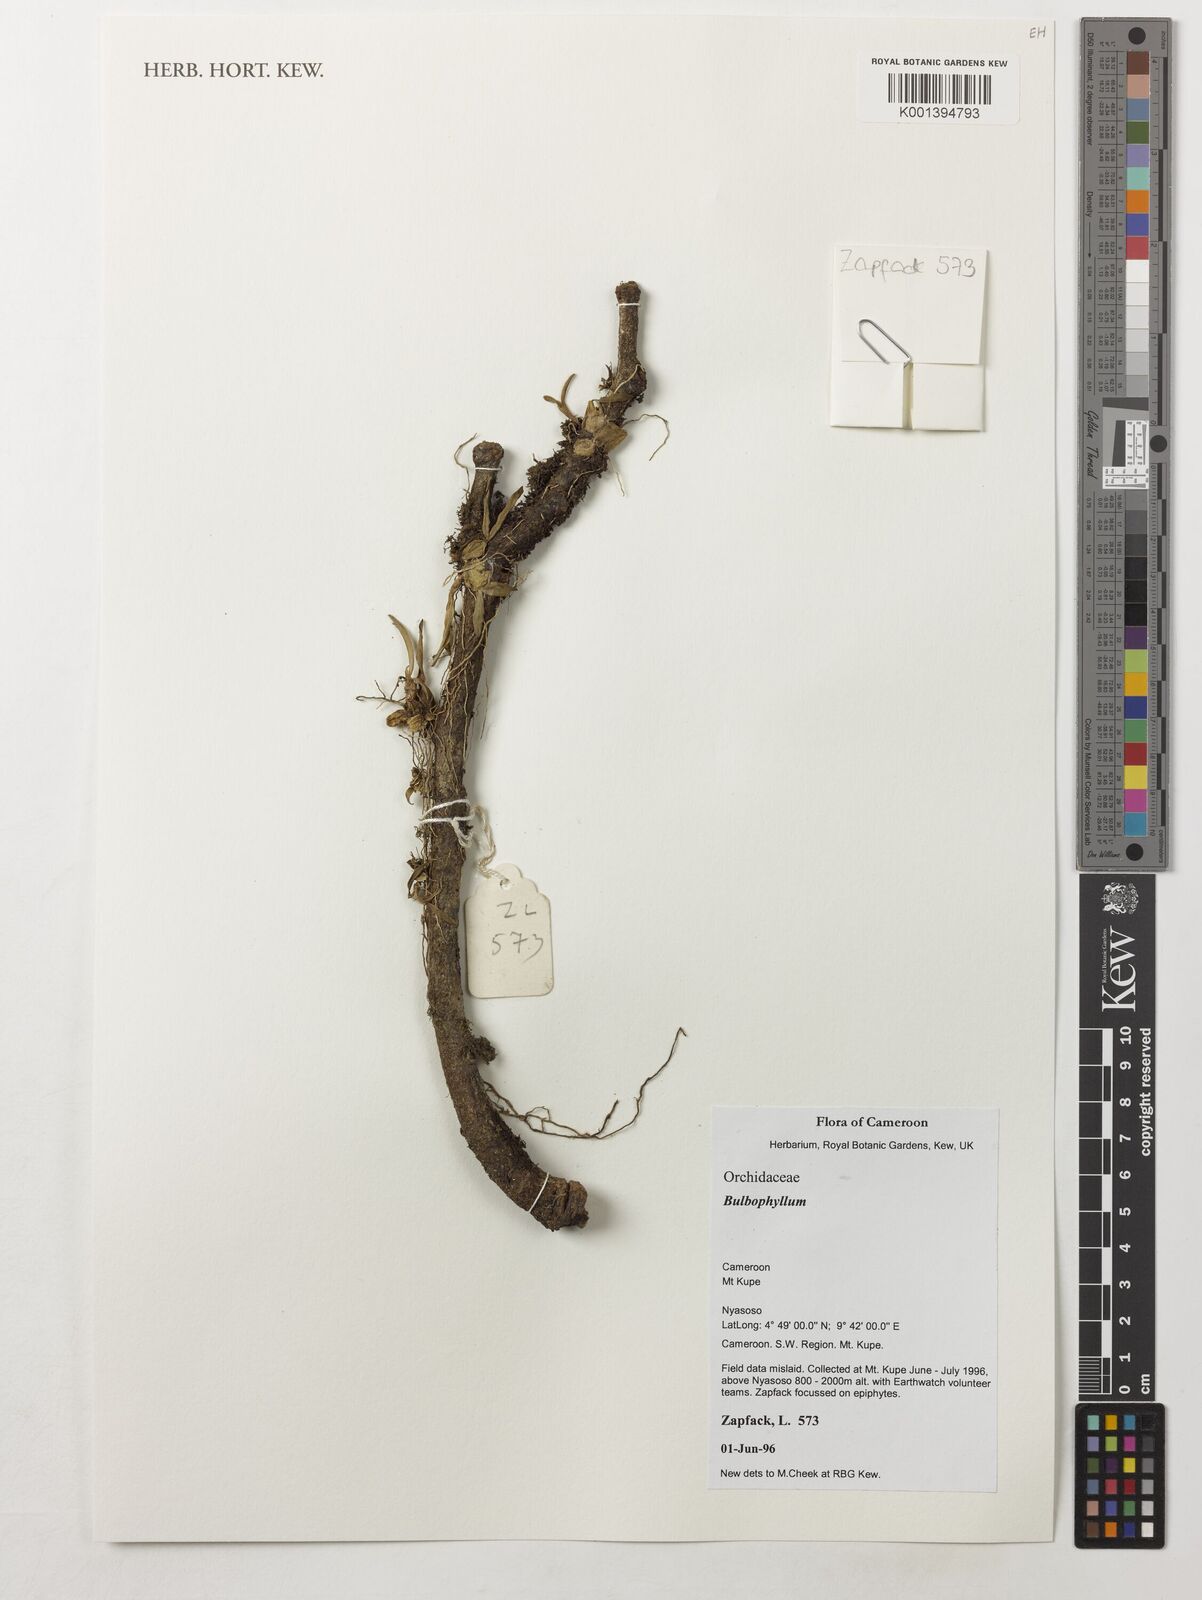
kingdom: Plantae
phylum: Tracheophyta
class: Liliopsida
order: Asparagales
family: Orchidaceae
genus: Bulbophyllum
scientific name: Bulbophyllum
